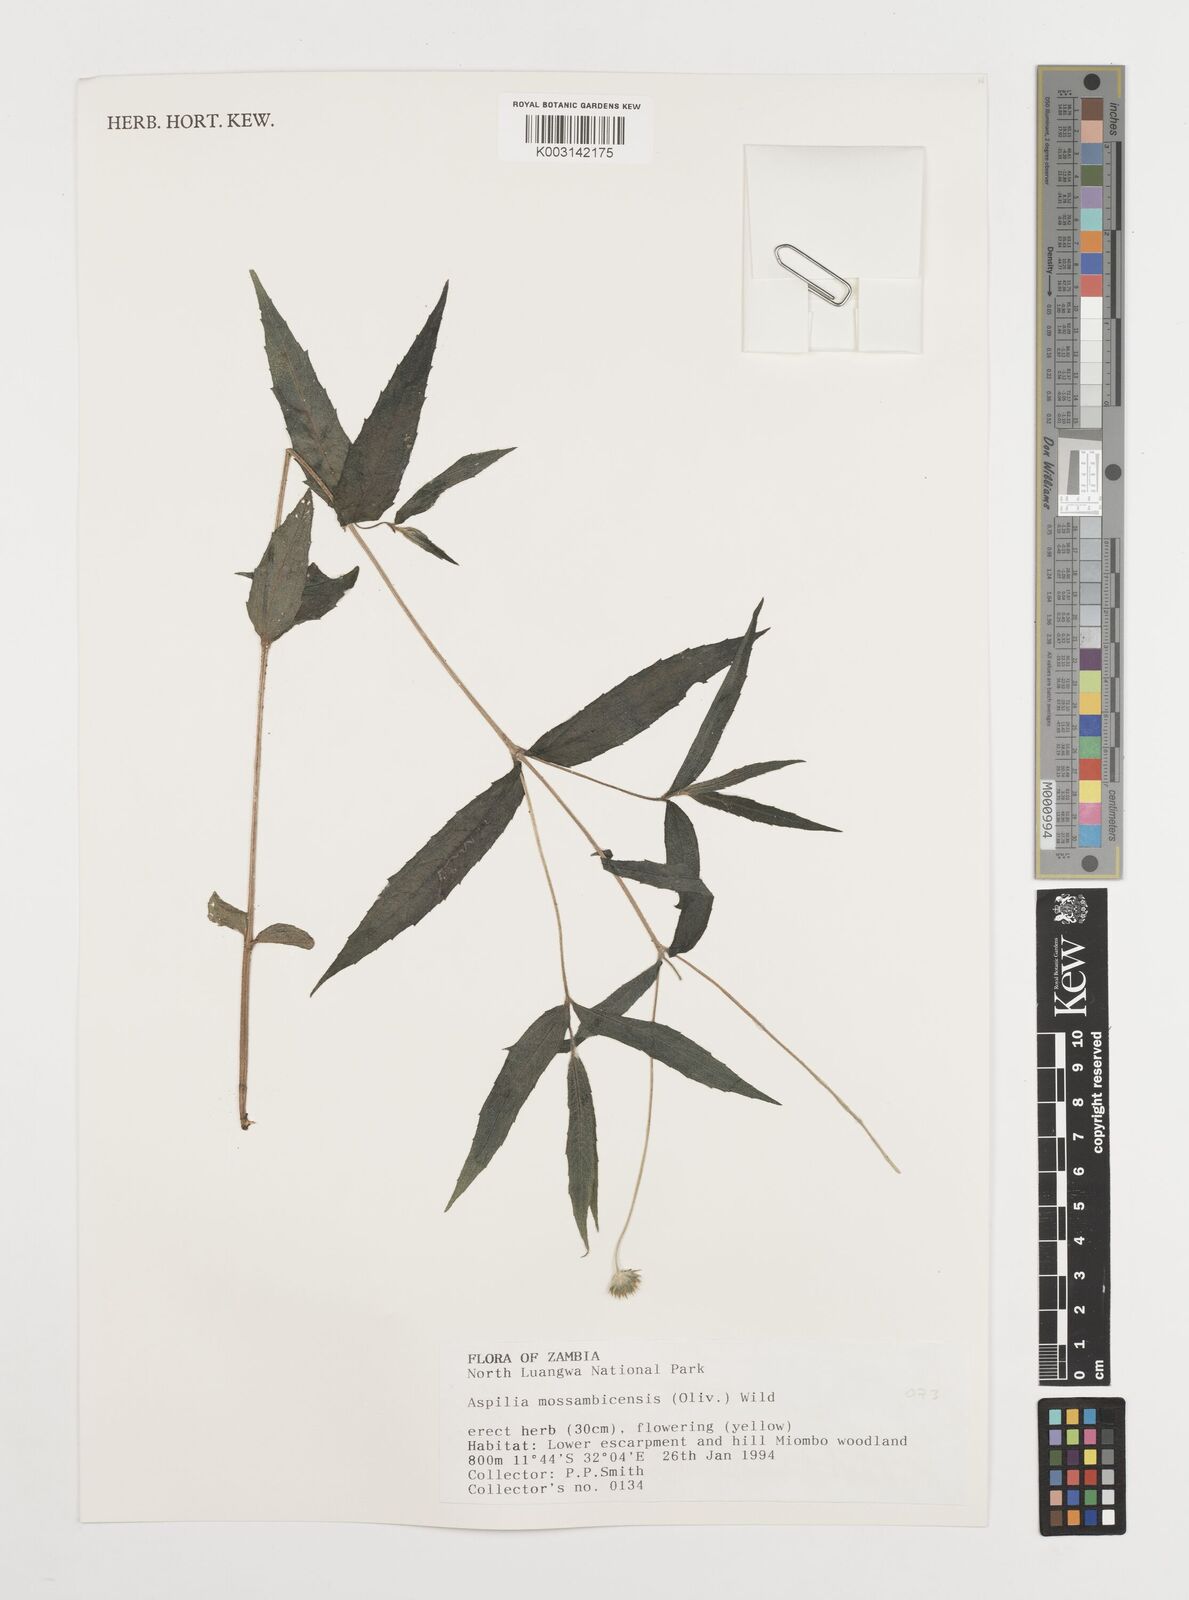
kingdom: Plantae
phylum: Tracheophyta
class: Magnoliopsida
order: Asterales
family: Asteraceae
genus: Aspilia
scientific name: Aspilia mossambicensis
